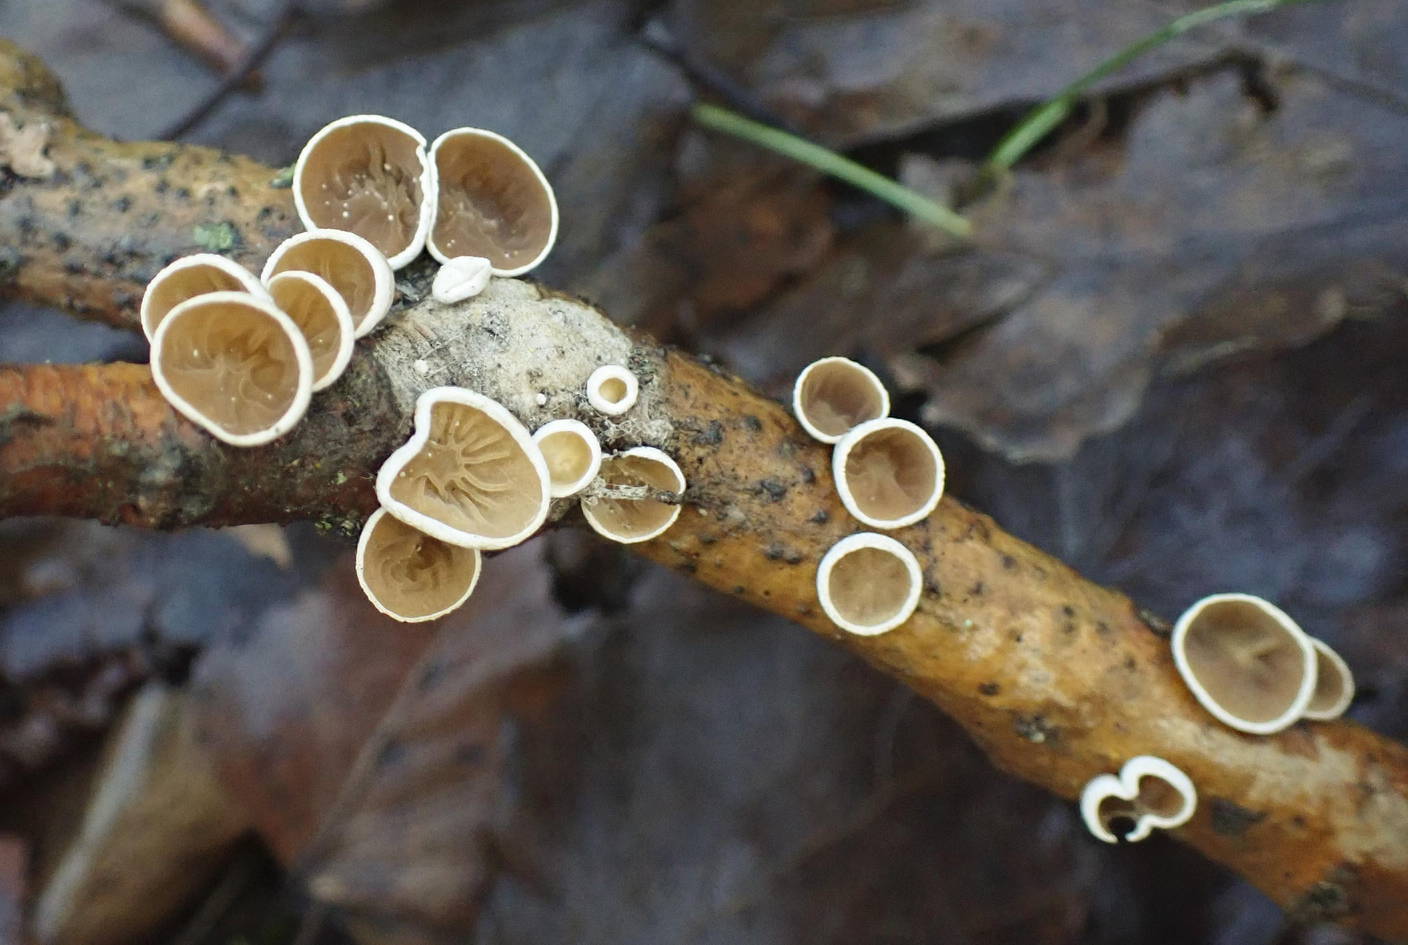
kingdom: Fungi
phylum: Basidiomycota
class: Agaricomycetes
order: Agaricales
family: Schizophyllaceae
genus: Schizophyllum
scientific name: Schizophyllum amplum
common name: poppel-hængeøre
